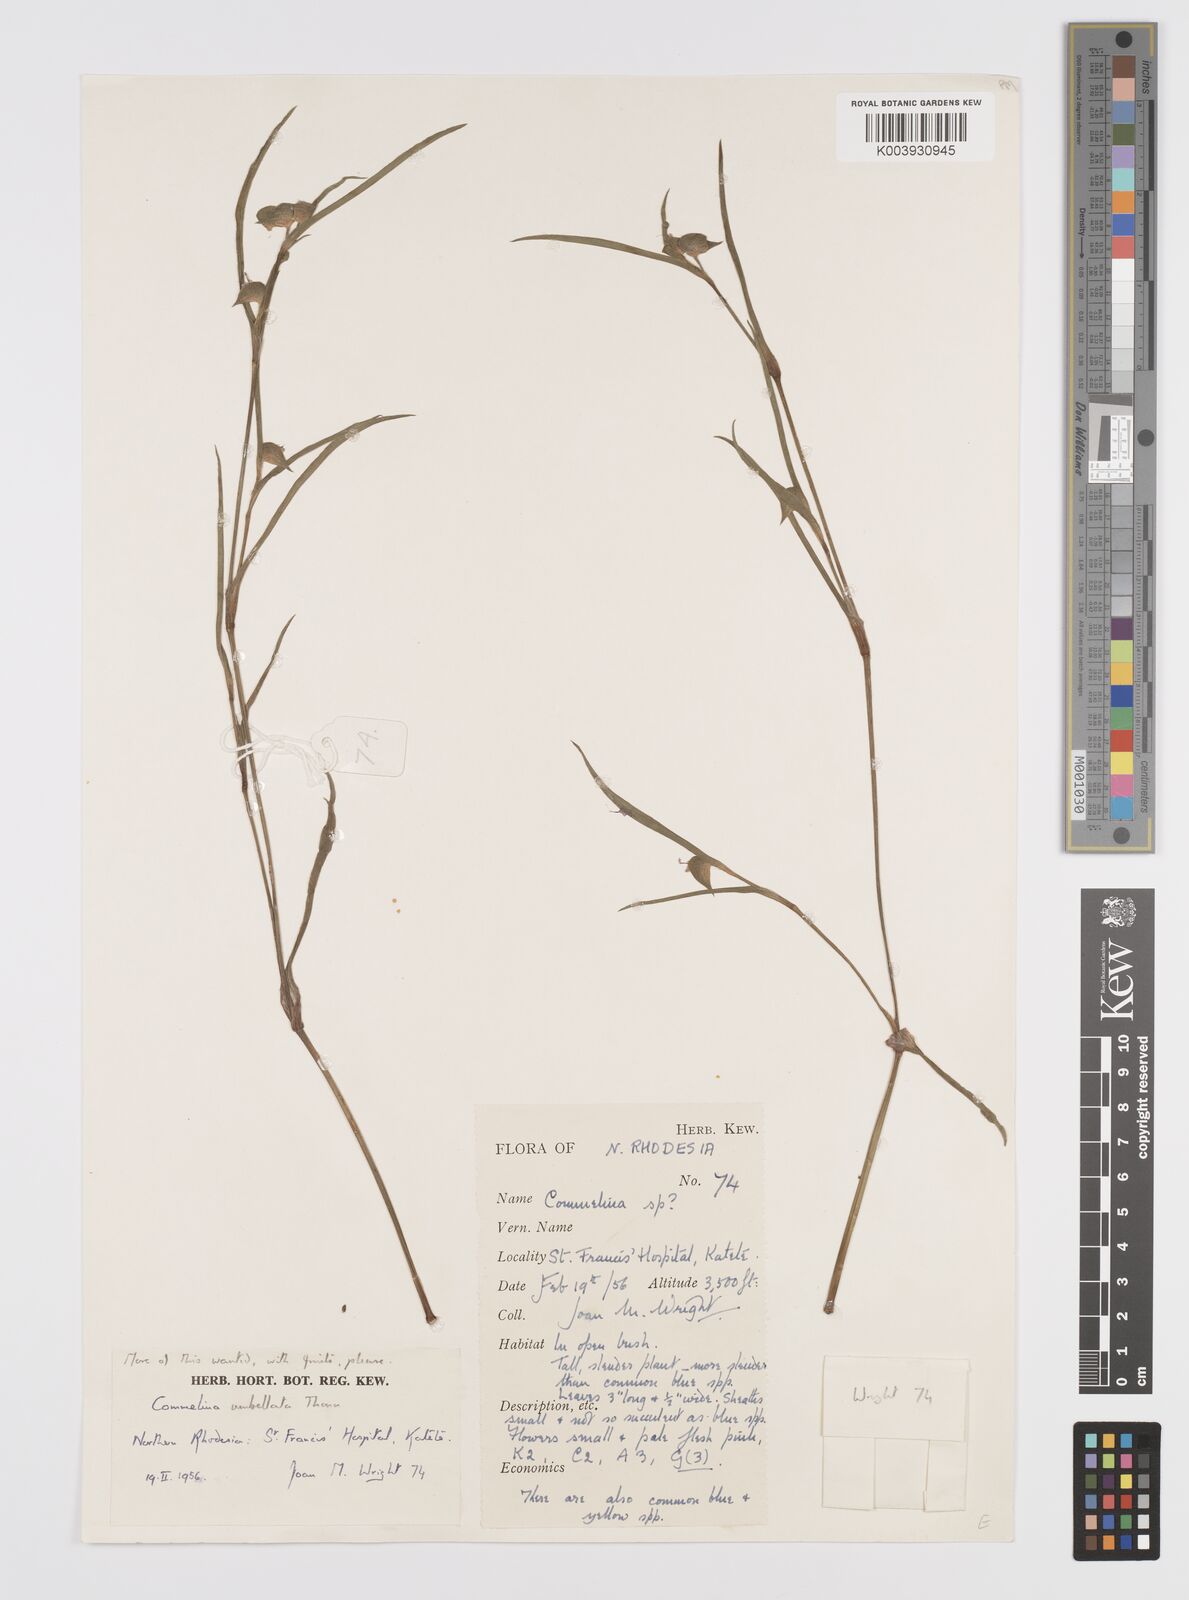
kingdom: Plantae
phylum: Tracheophyta
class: Liliopsida
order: Commelinales
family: Commelinaceae
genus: Commelina
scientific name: Commelina nigritana
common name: African dayflower
